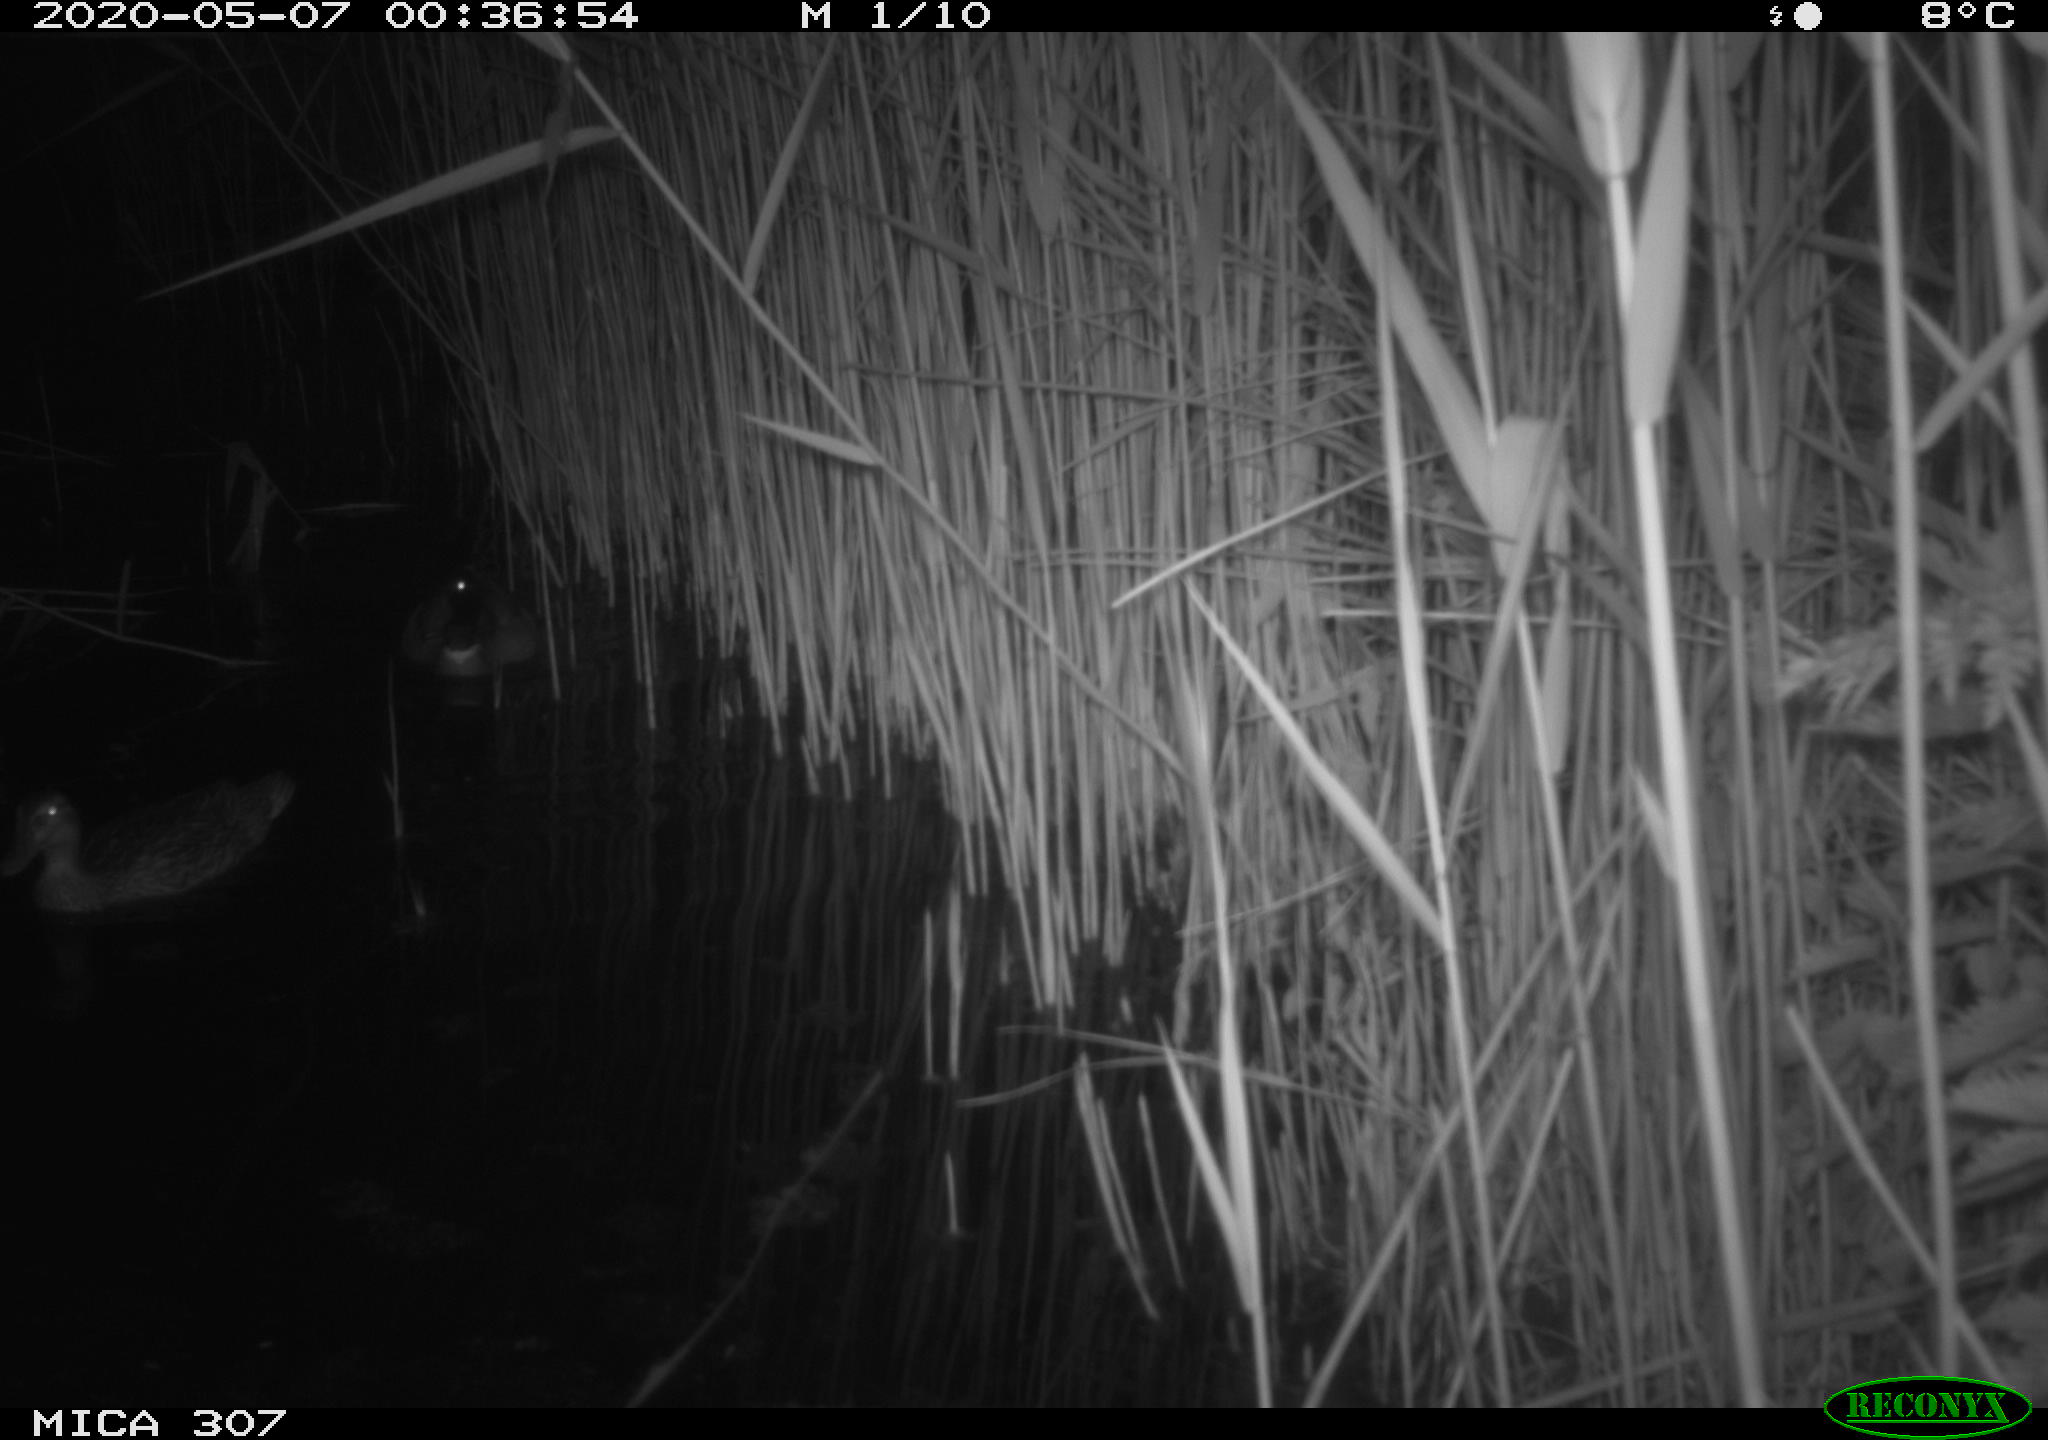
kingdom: Animalia
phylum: Chordata
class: Aves
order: Anseriformes
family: Anatidae
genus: Anas
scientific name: Anas platyrhynchos
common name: Mallard
